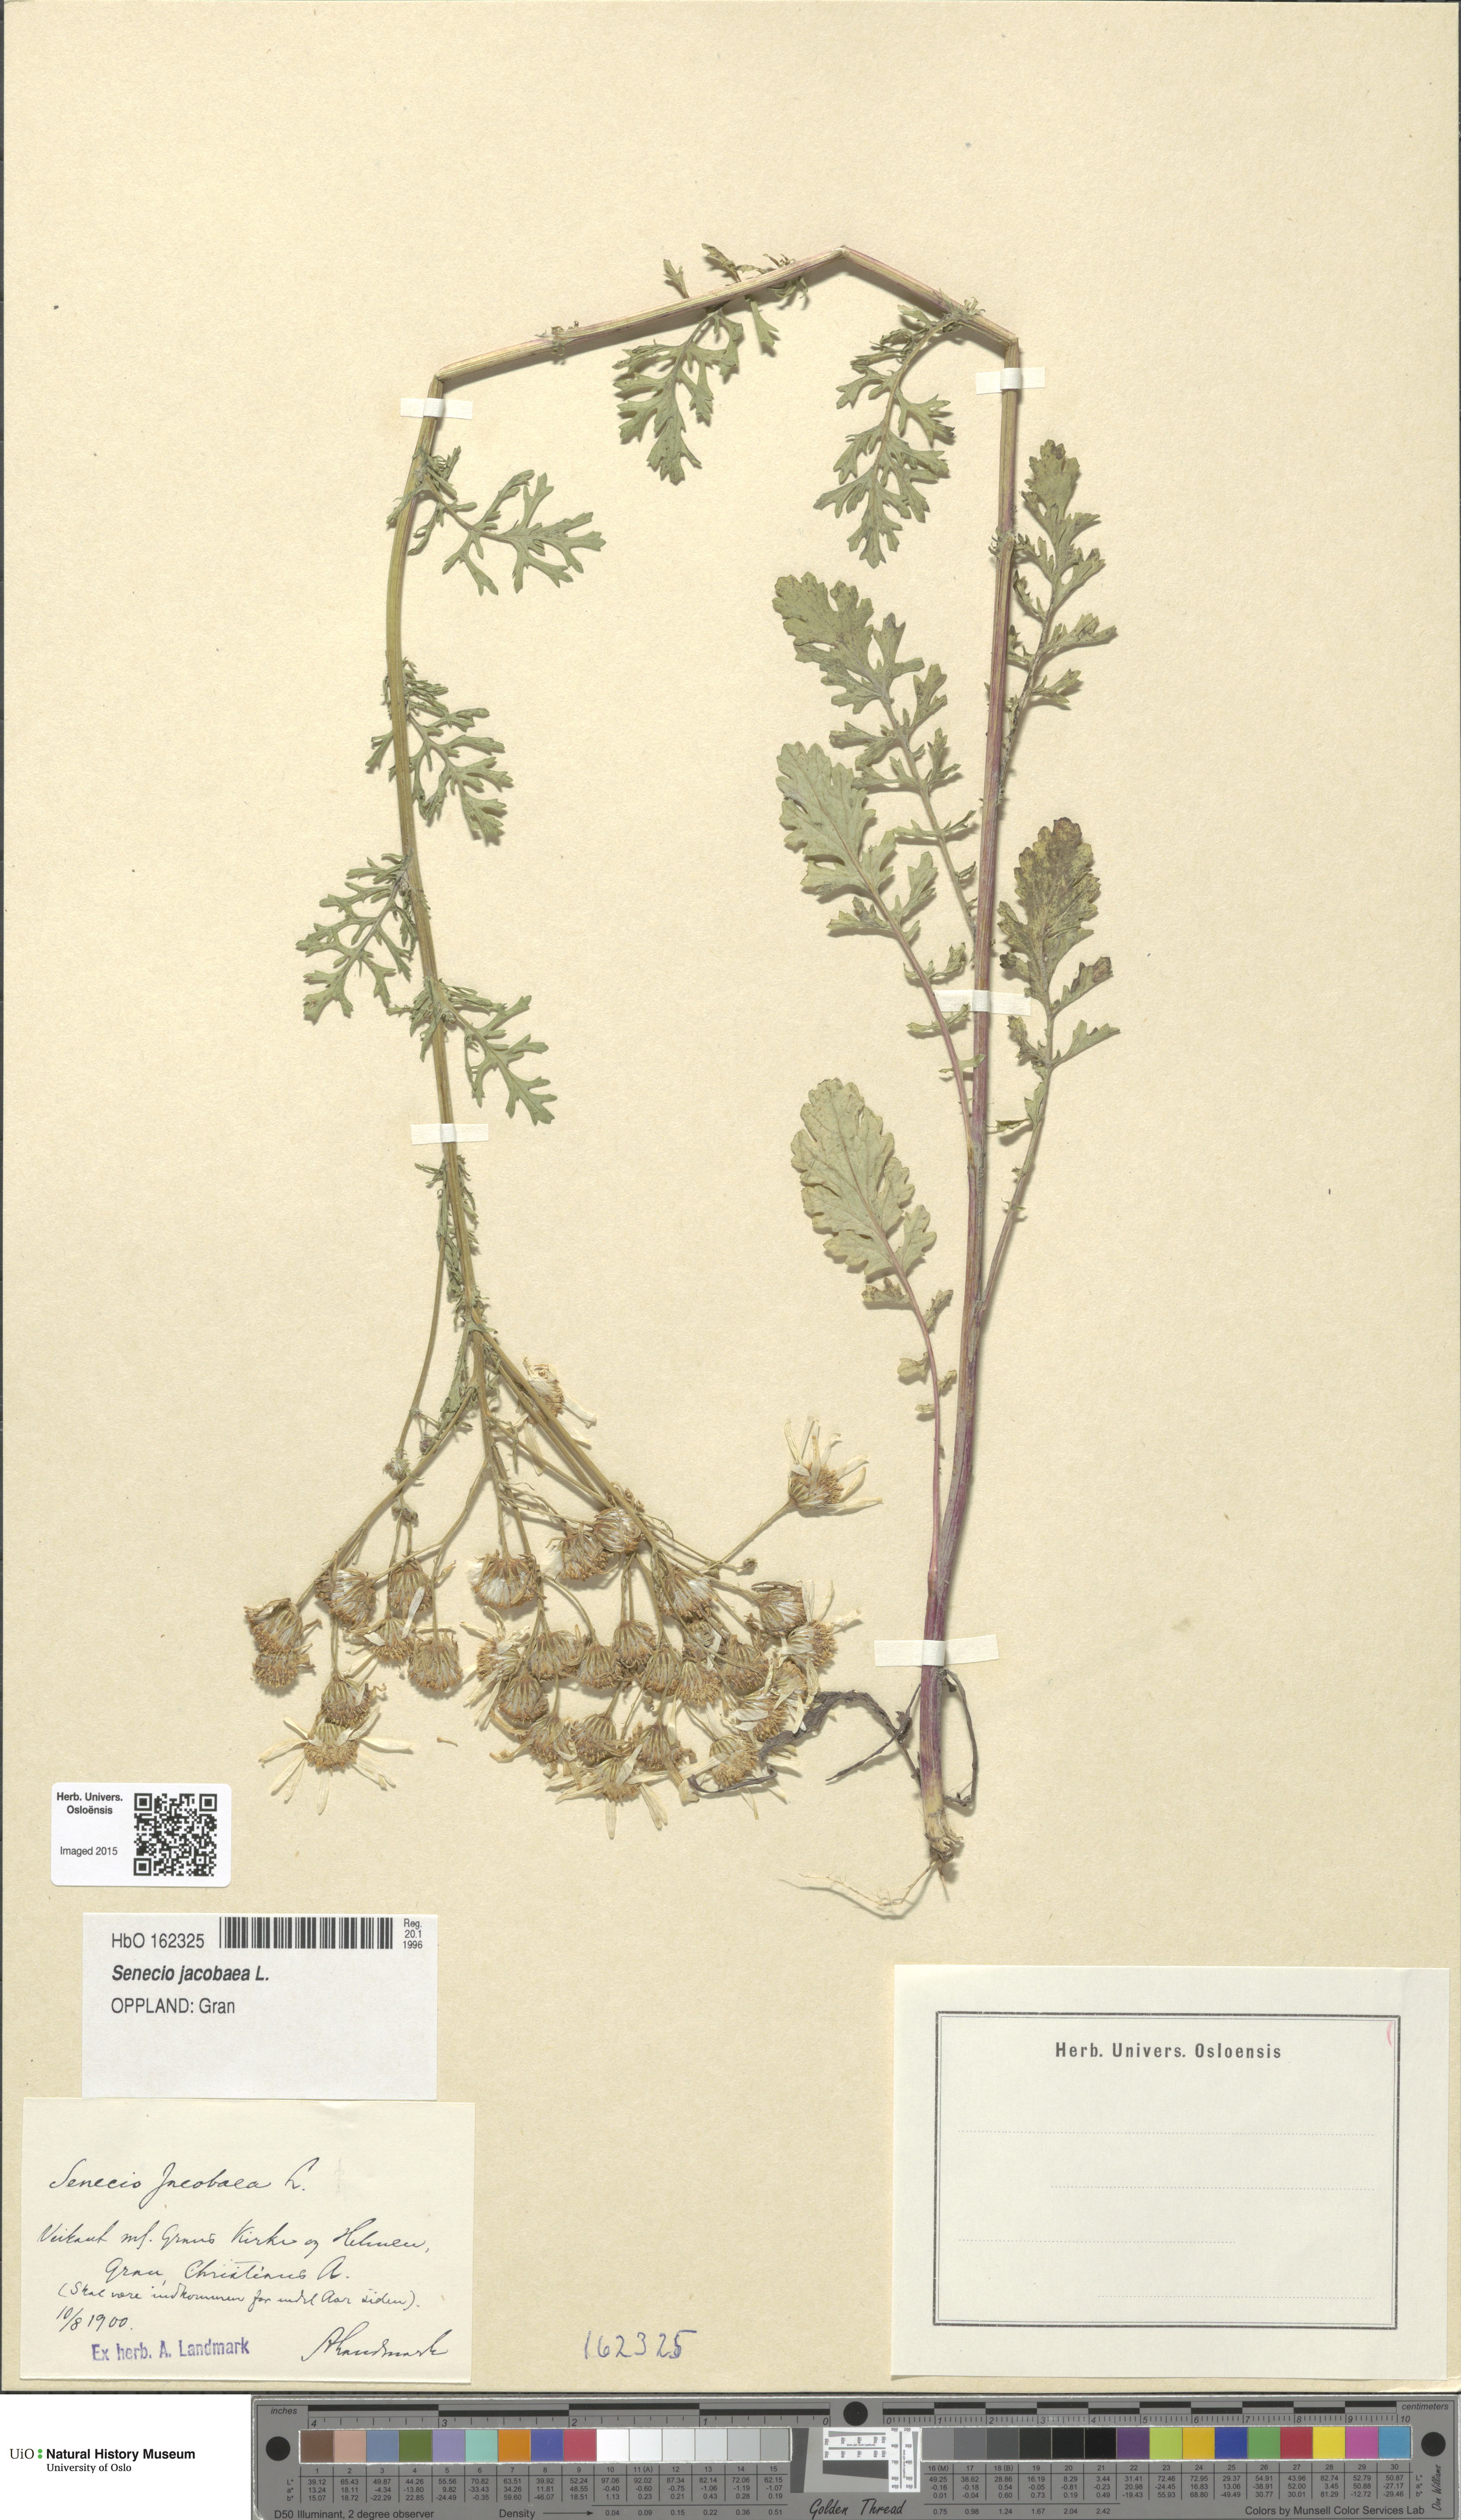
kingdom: Plantae
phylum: Tracheophyta
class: Magnoliopsida
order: Asterales
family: Asteraceae
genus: Jacobaea
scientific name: Jacobaea vulgaris
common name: Stinking willie
